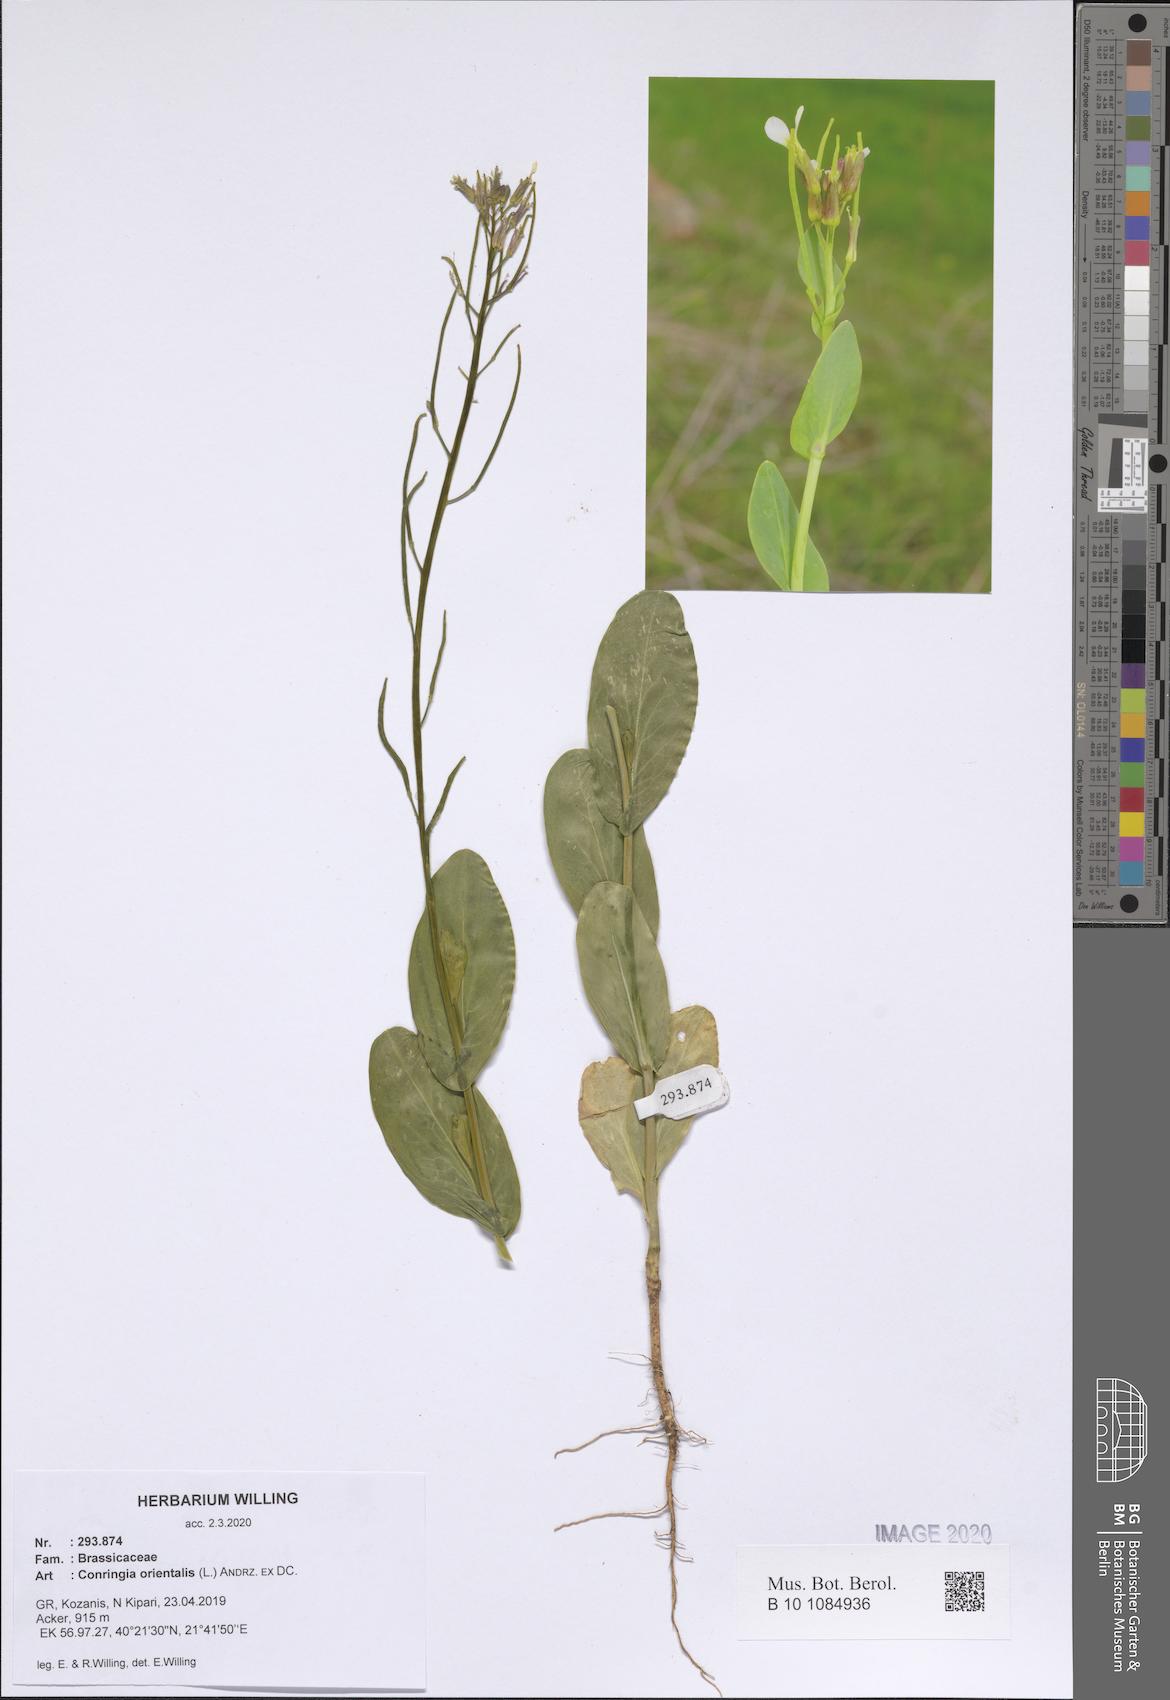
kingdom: Plantae
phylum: Tracheophyta
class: Magnoliopsida
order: Brassicales
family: Brassicaceae
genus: Conringia
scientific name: Conringia orientalis
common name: Hare's ear mustard
